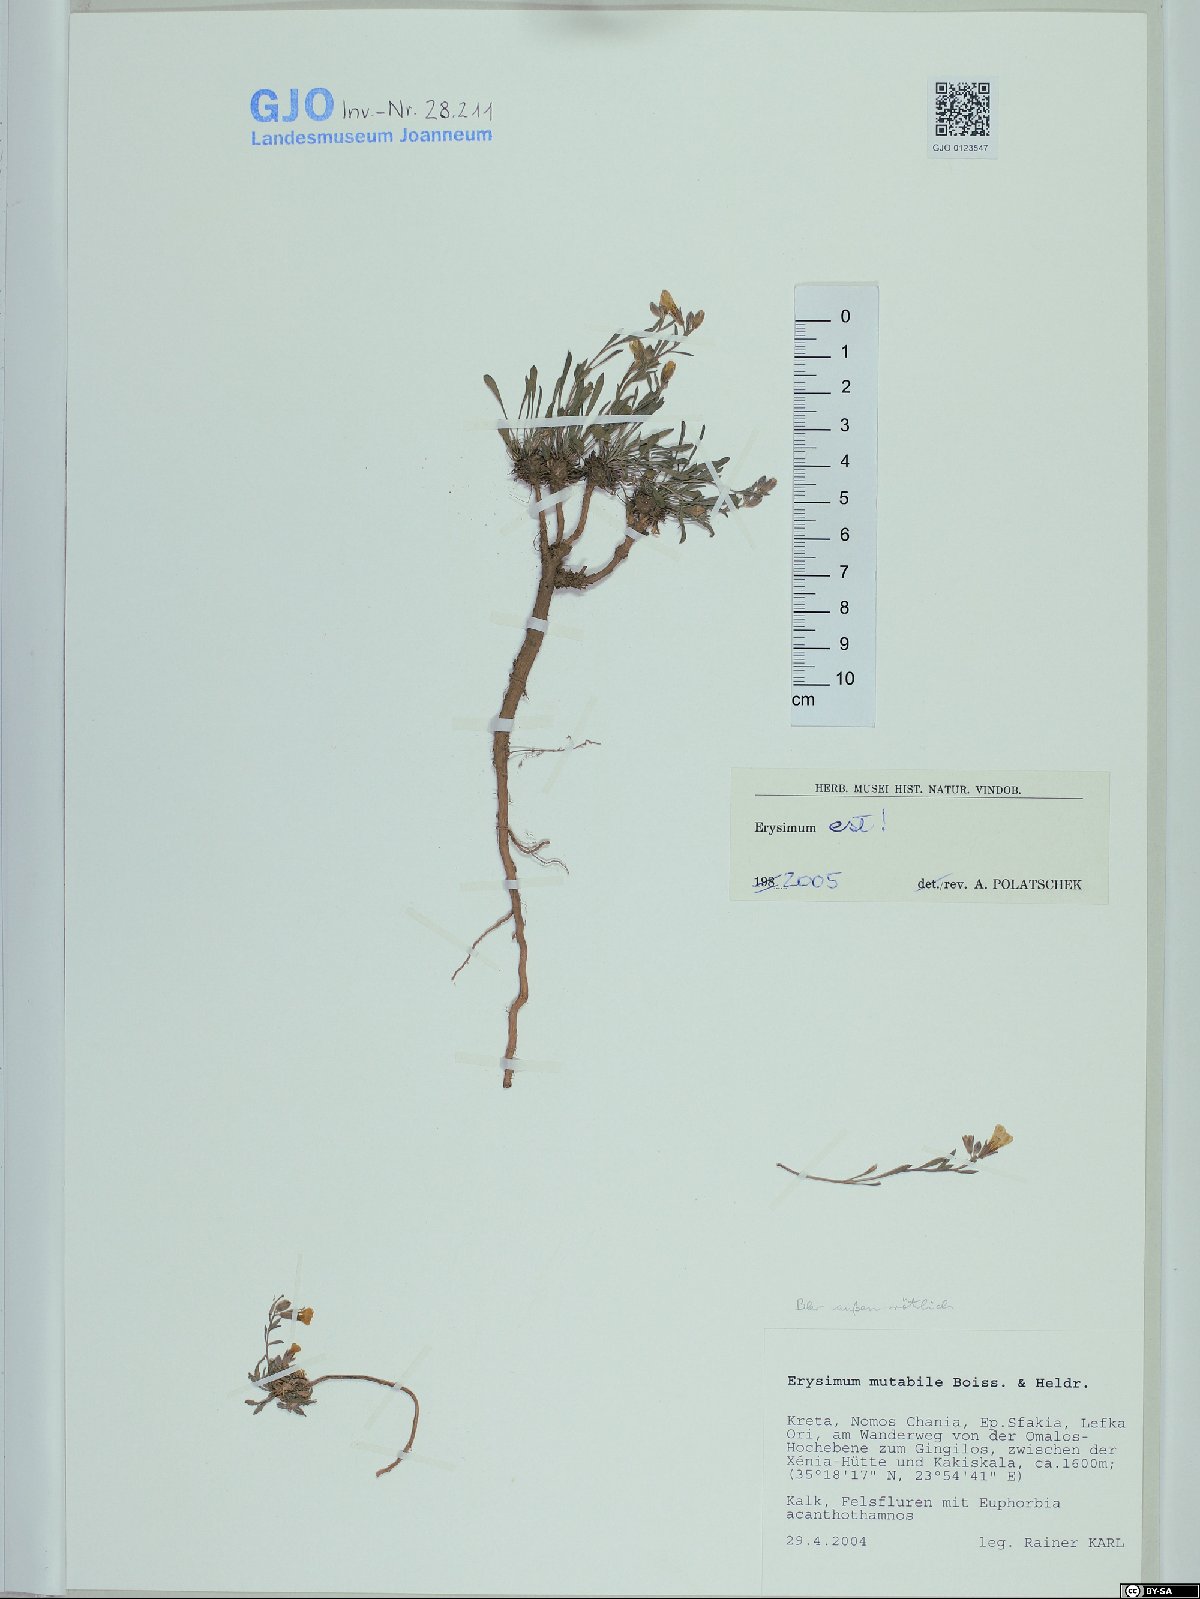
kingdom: Plantae
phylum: Tracheophyta
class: Magnoliopsida
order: Brassicales
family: Brassicaceae
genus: Erysimum
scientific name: Erysimum mutabile
